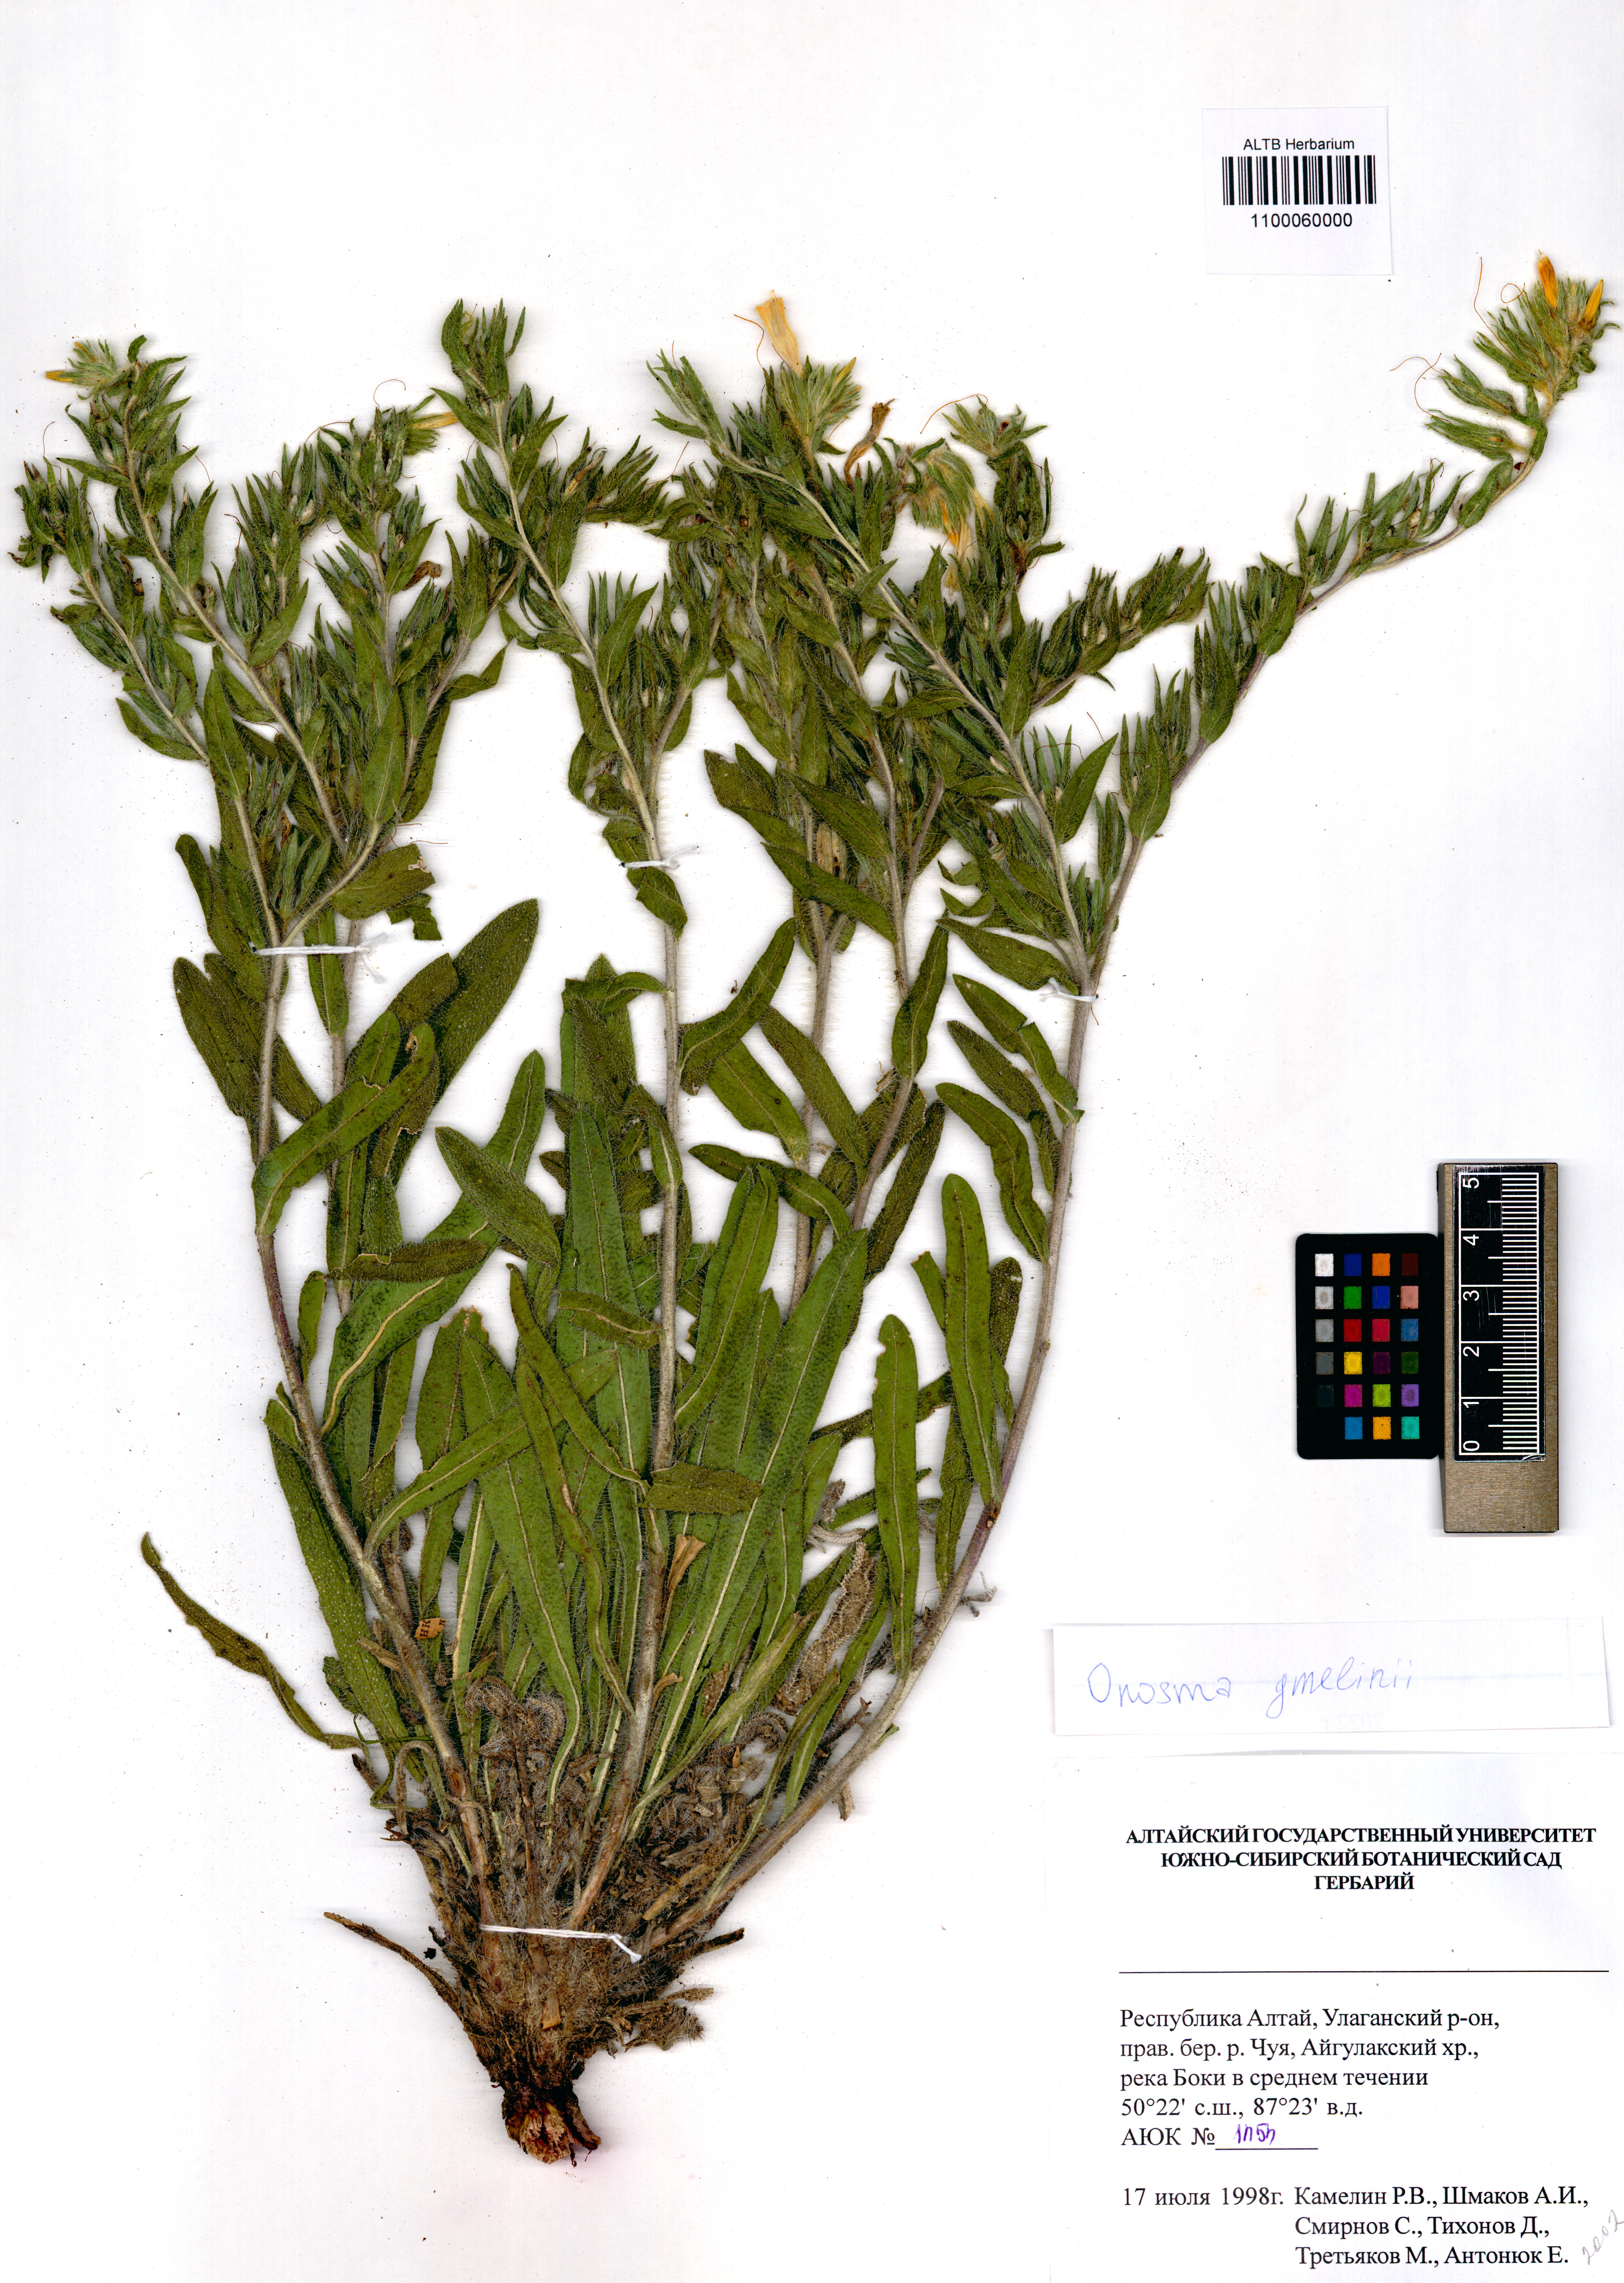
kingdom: Plantae
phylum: Tracheophyta
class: Magnoliopsida
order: Boraginales
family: Boraginaceae
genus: Onosma
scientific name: Onosma gmelinii
